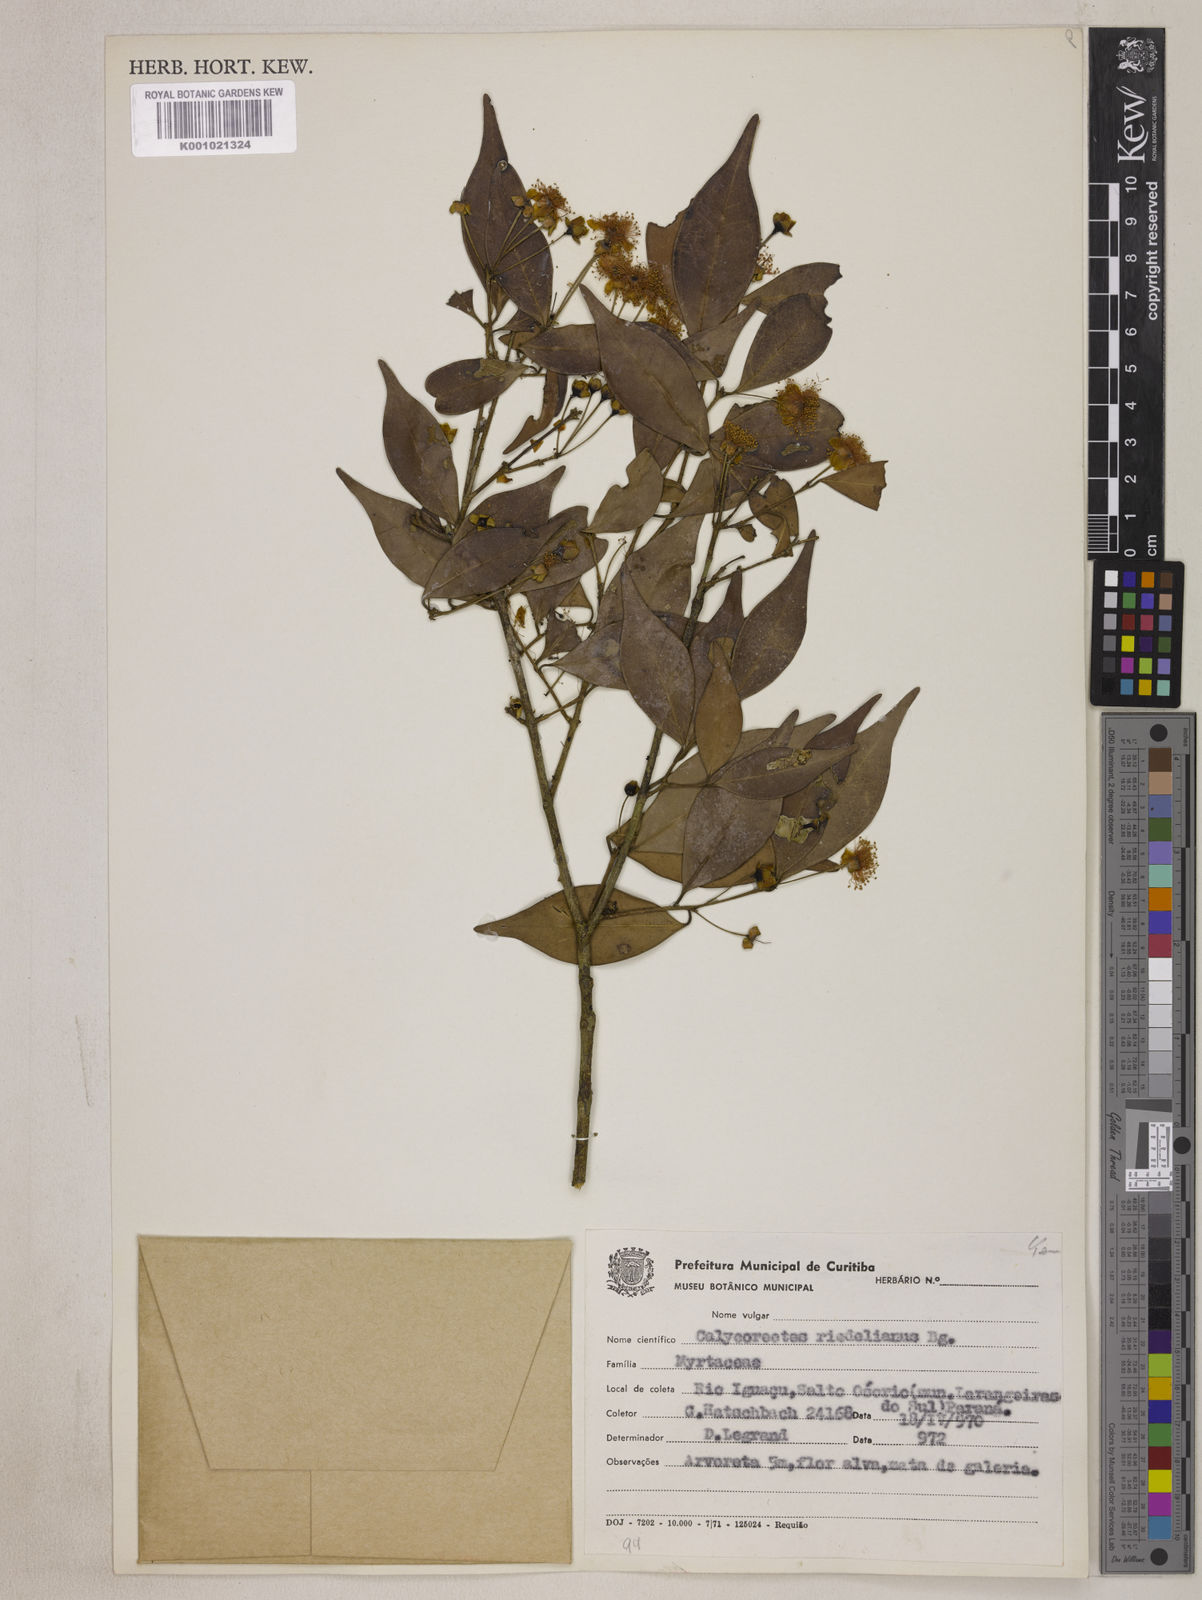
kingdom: Plantae
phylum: Tracheophyta
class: Magnoliopsida
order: Myrtales
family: Myrtaceae
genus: Eugenia
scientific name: Eugenia subterminalis
